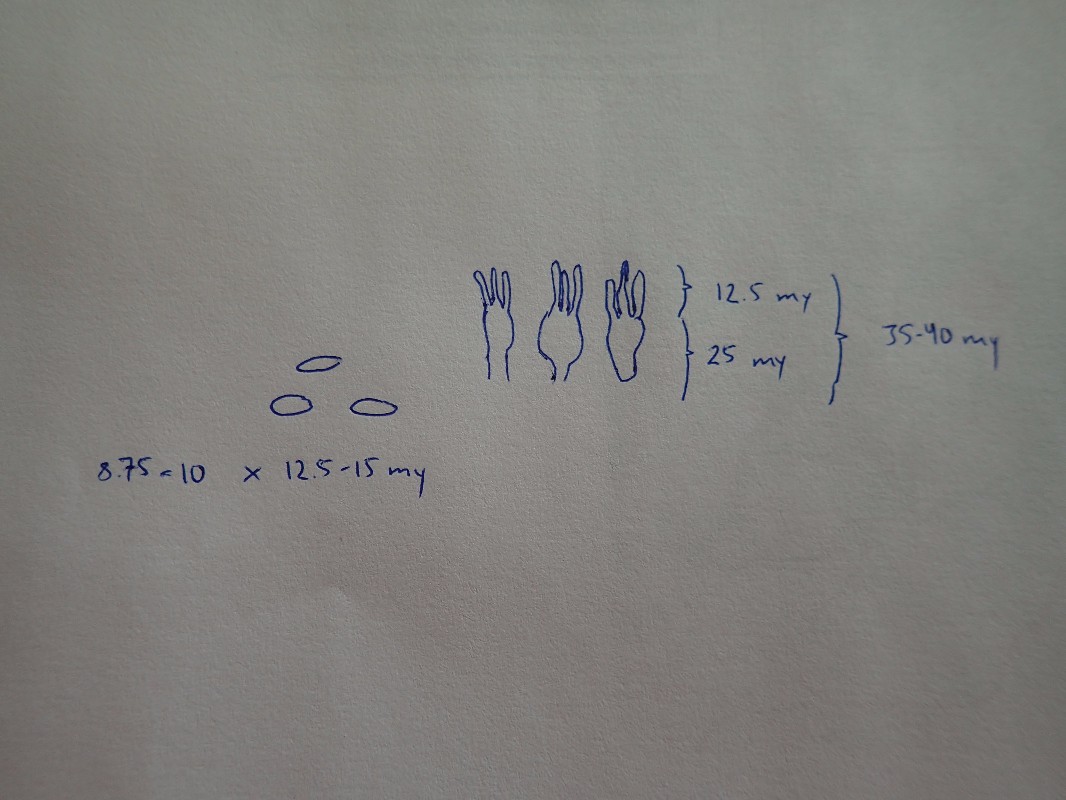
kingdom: Fungi
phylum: Basidiomycota
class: Agaricomycetes
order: Agaricales
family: Mycenaceae
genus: Mycena
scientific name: Mycena albidolilacea
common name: lyslilla huesvamp
